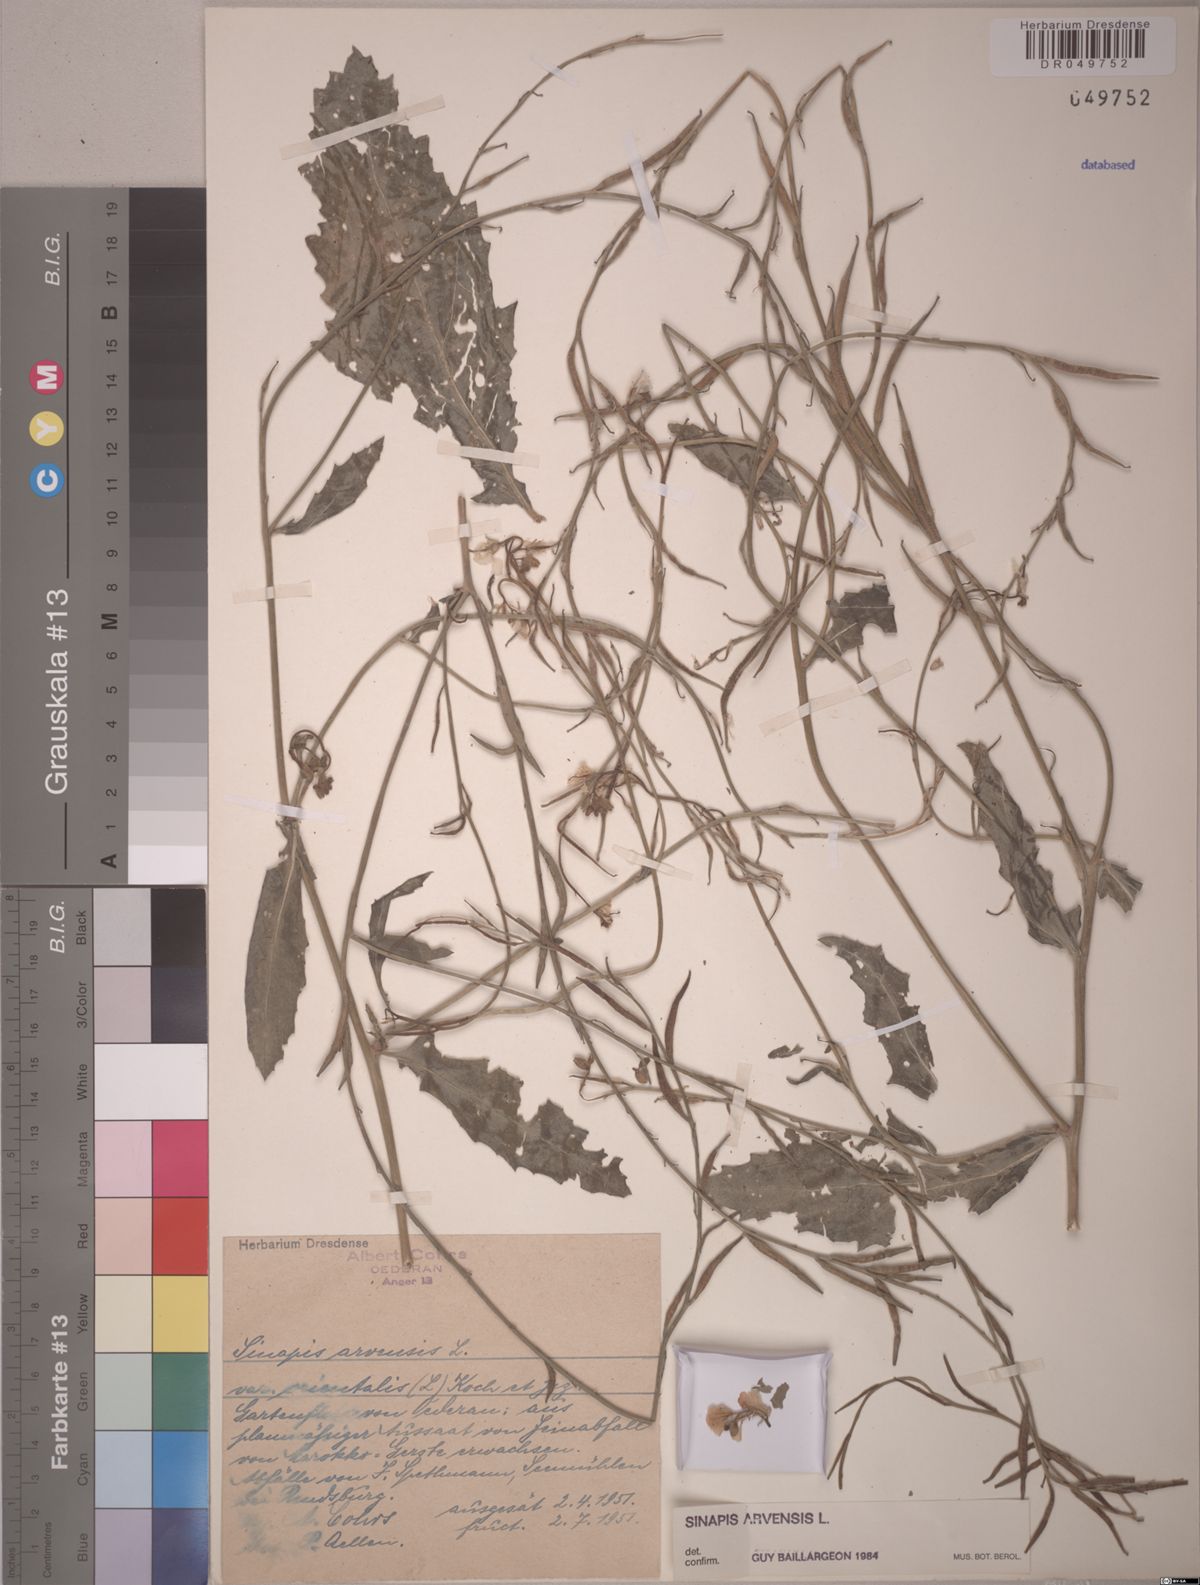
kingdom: Plantae
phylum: Tracheophyta
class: Magnoliopsida
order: Brassicales
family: Brassicaceae
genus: Sinapis
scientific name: Sinapis arvensis
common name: Charlock
